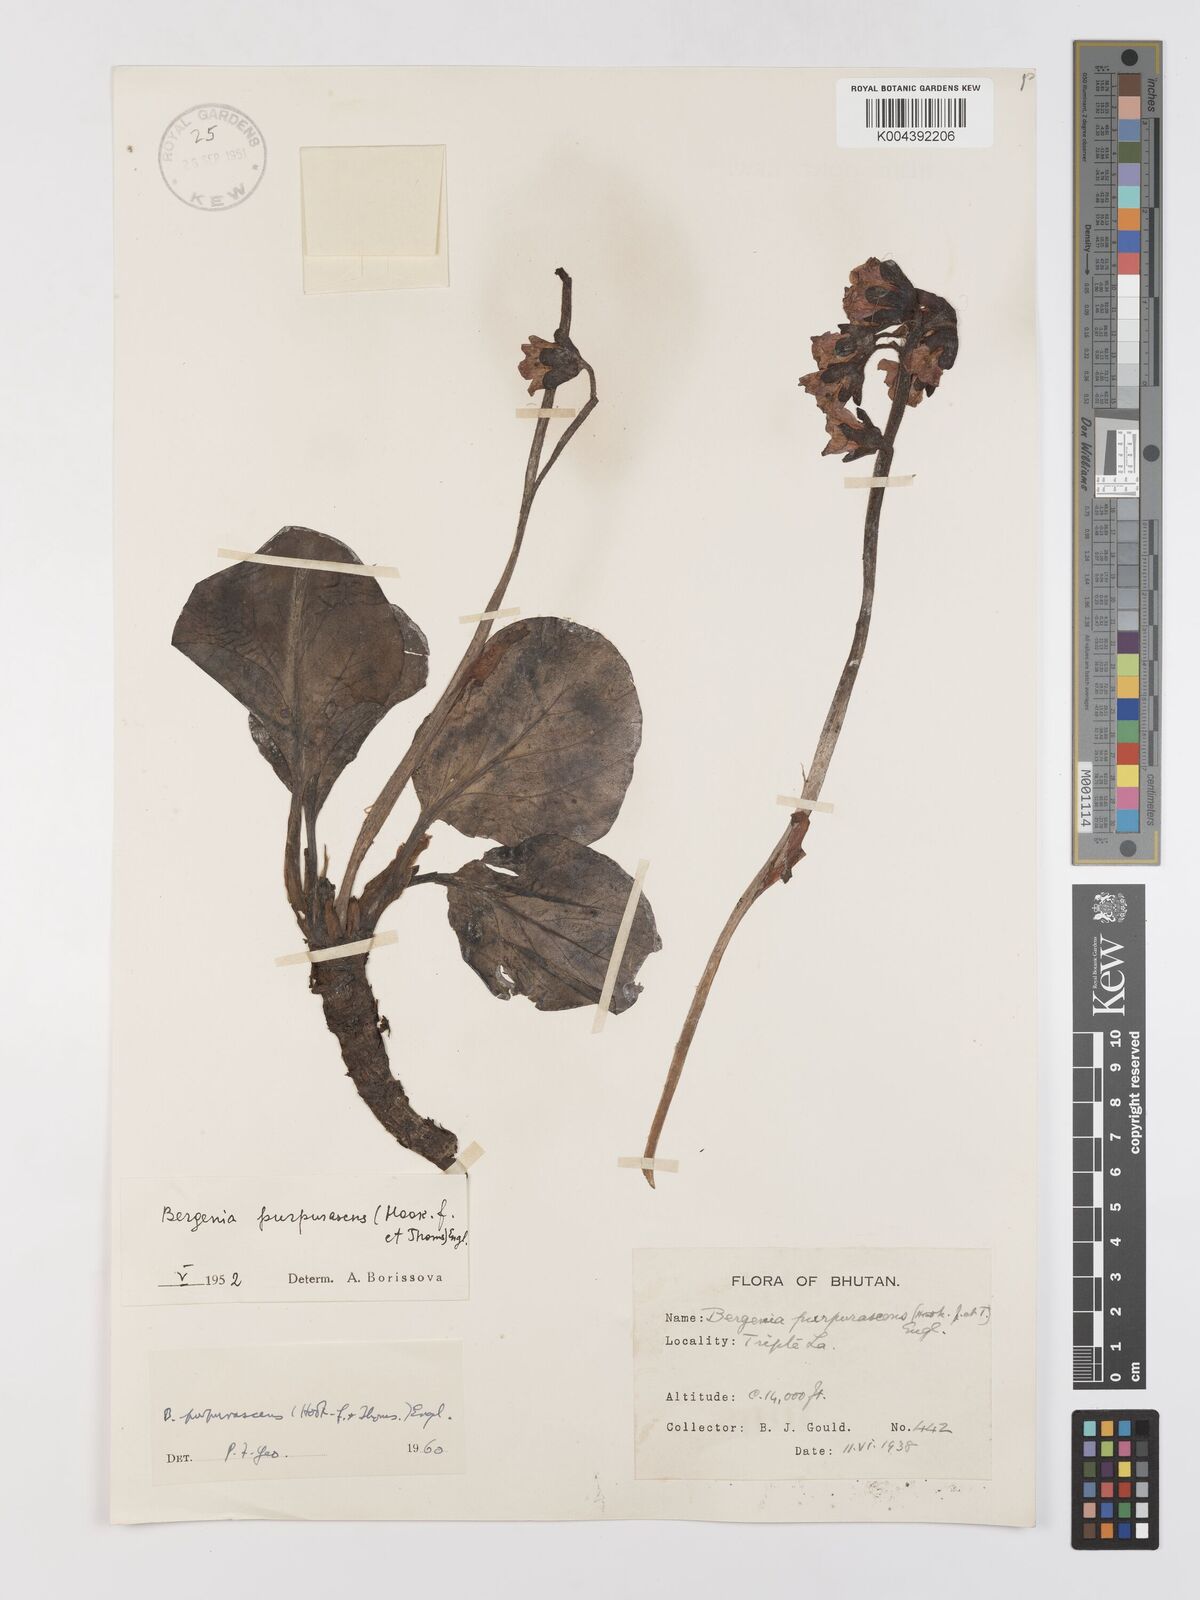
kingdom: Plantae
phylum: Tracheophyta
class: Magnoliopsida
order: Saxifragales
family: Saxifragaceae
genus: Bergenia
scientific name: Bergenia purpurascens
